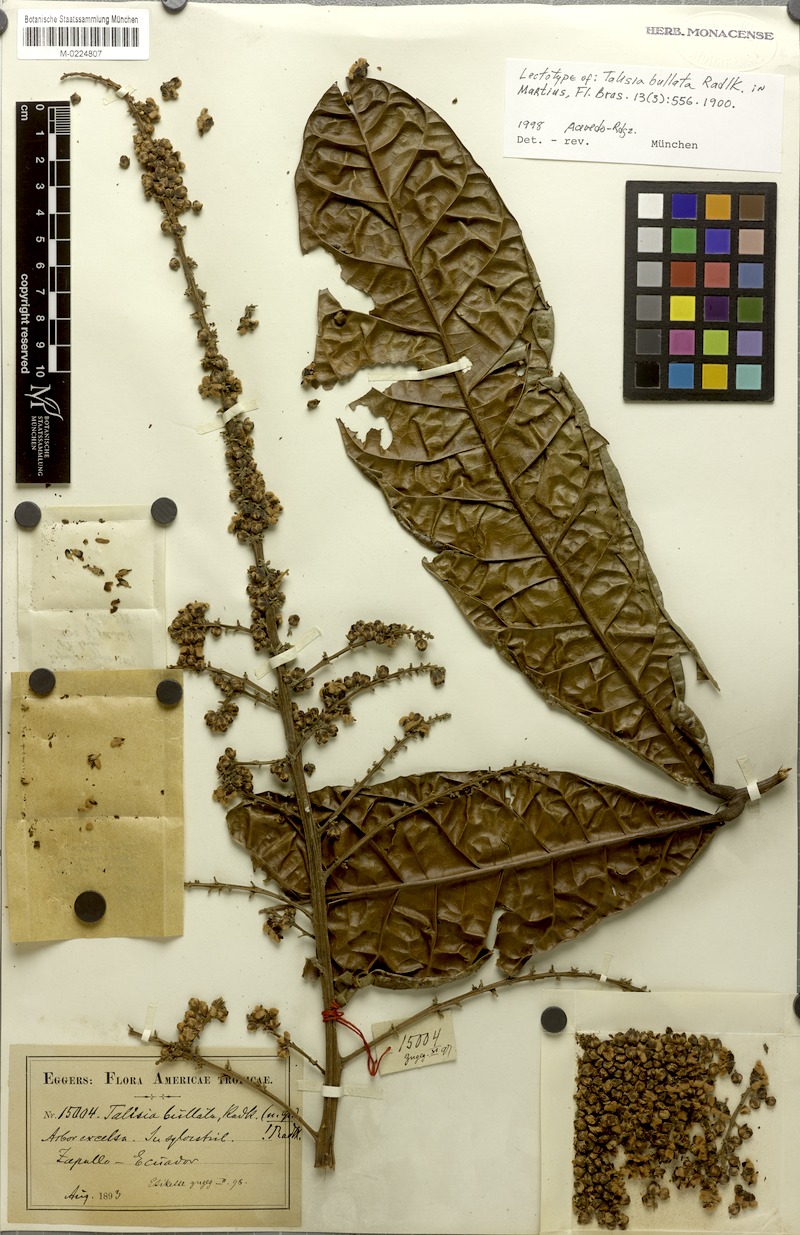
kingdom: Plantae
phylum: Tracheophyta
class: Magnoliopsida
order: Sapindales
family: Sapindaceae
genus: Talisia
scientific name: Talisia bullata
